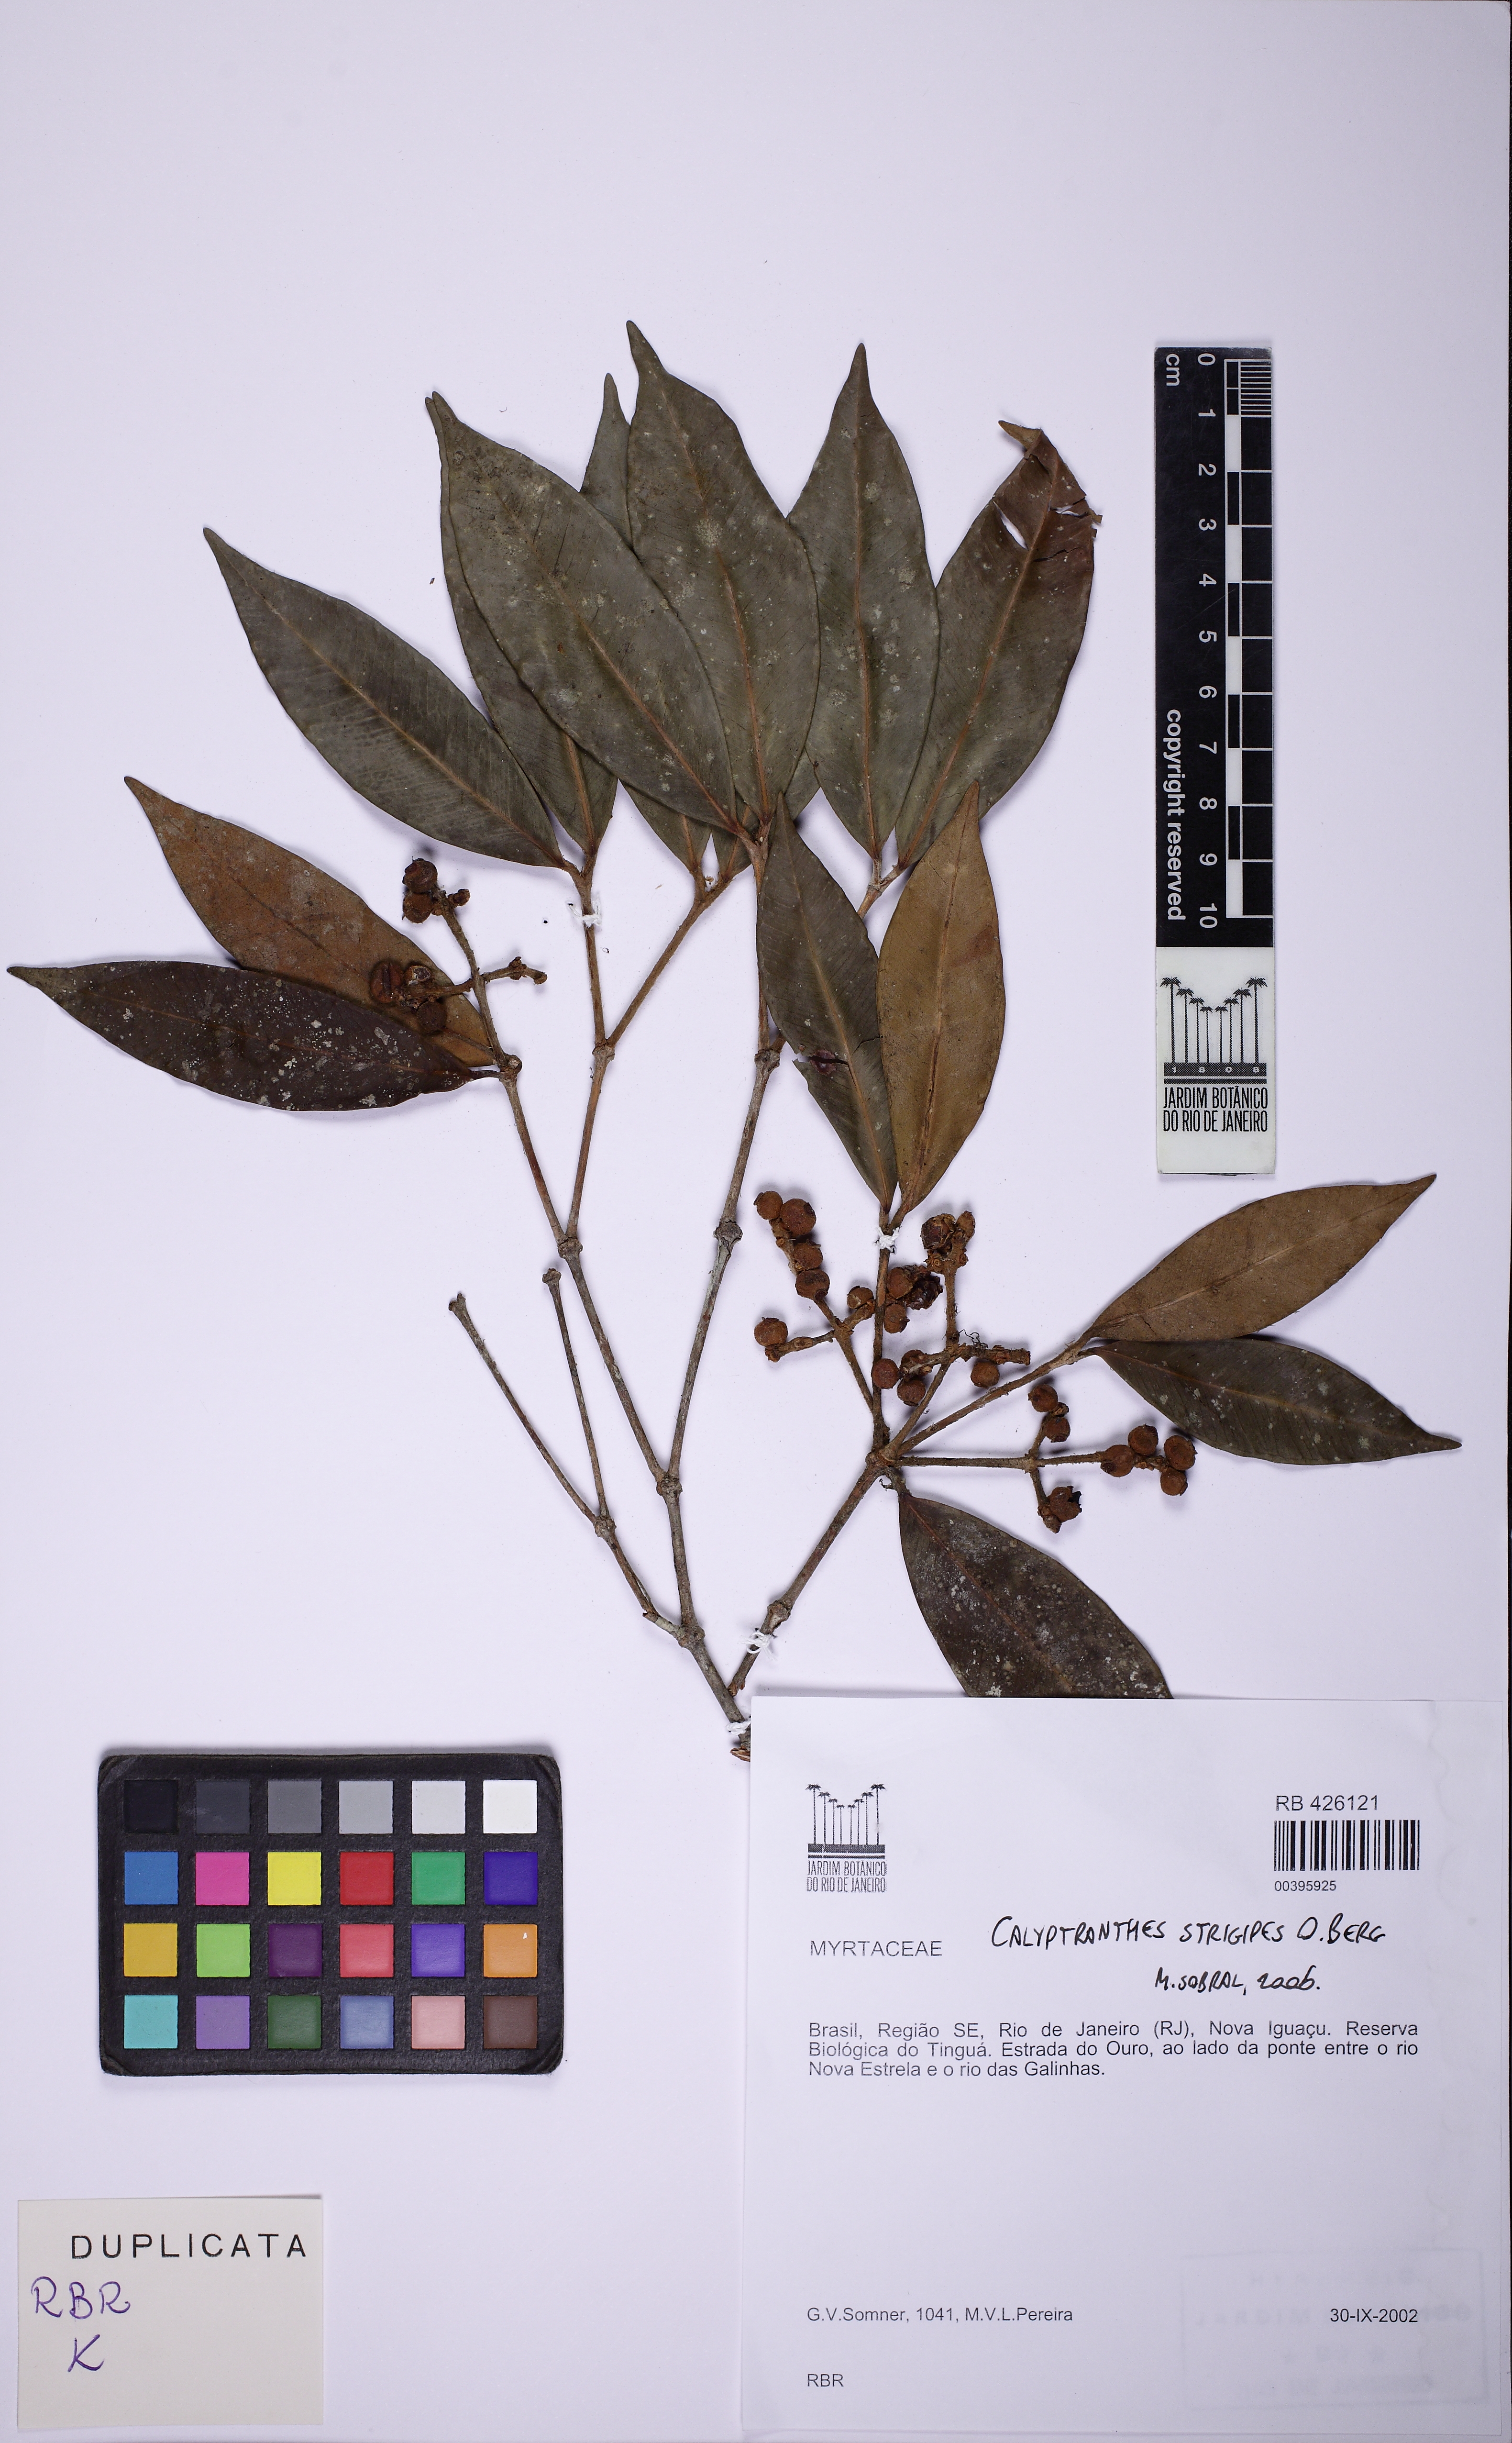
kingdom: Plantae
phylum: Tracheophyta
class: Magnoliopsida
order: Myrtales
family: Myrtaceae
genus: Myrcia
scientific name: Myrcia strigosa
